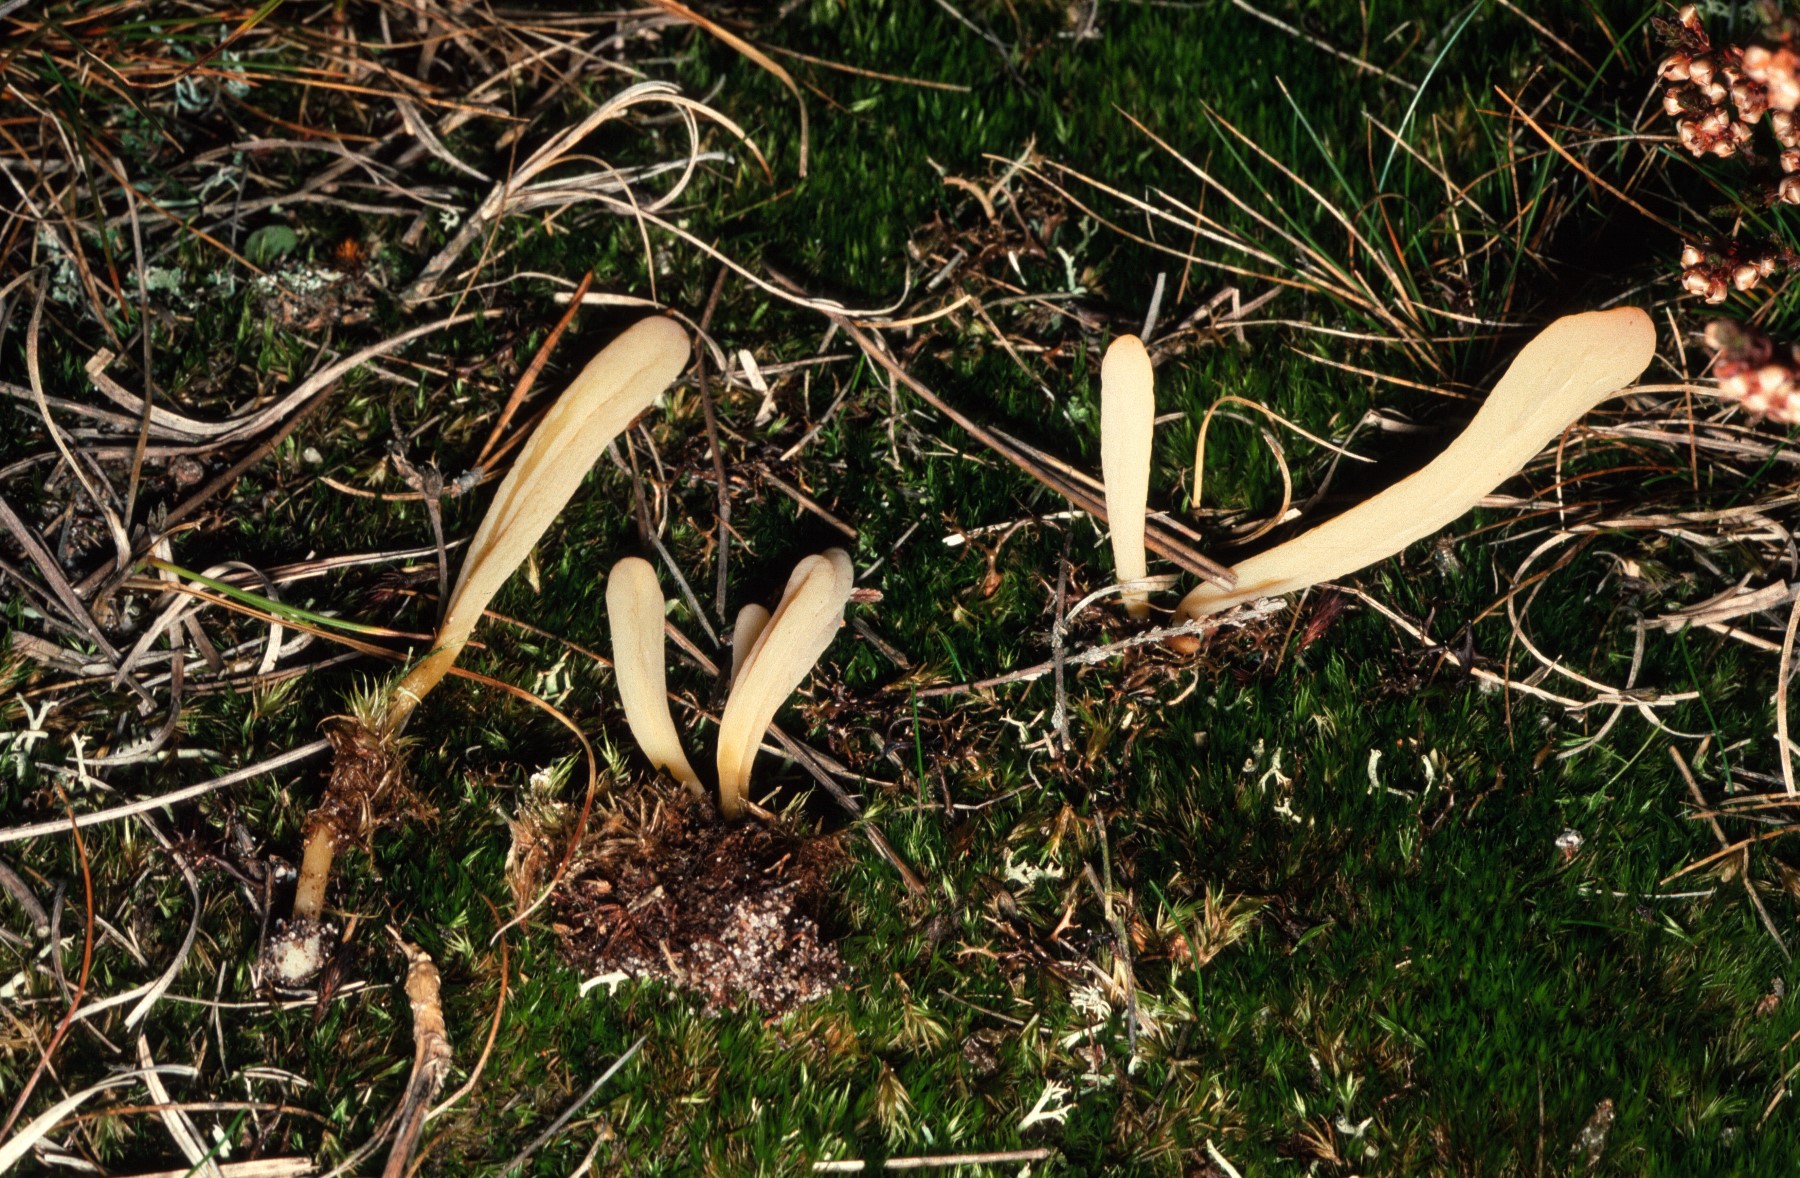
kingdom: Fungi
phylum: Basidiomycota
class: Agaricomycetes
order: Agaricales
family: Clavariaceae
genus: Clavaria
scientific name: Clavaria argillacea
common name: lerfarvet køllesvamp
